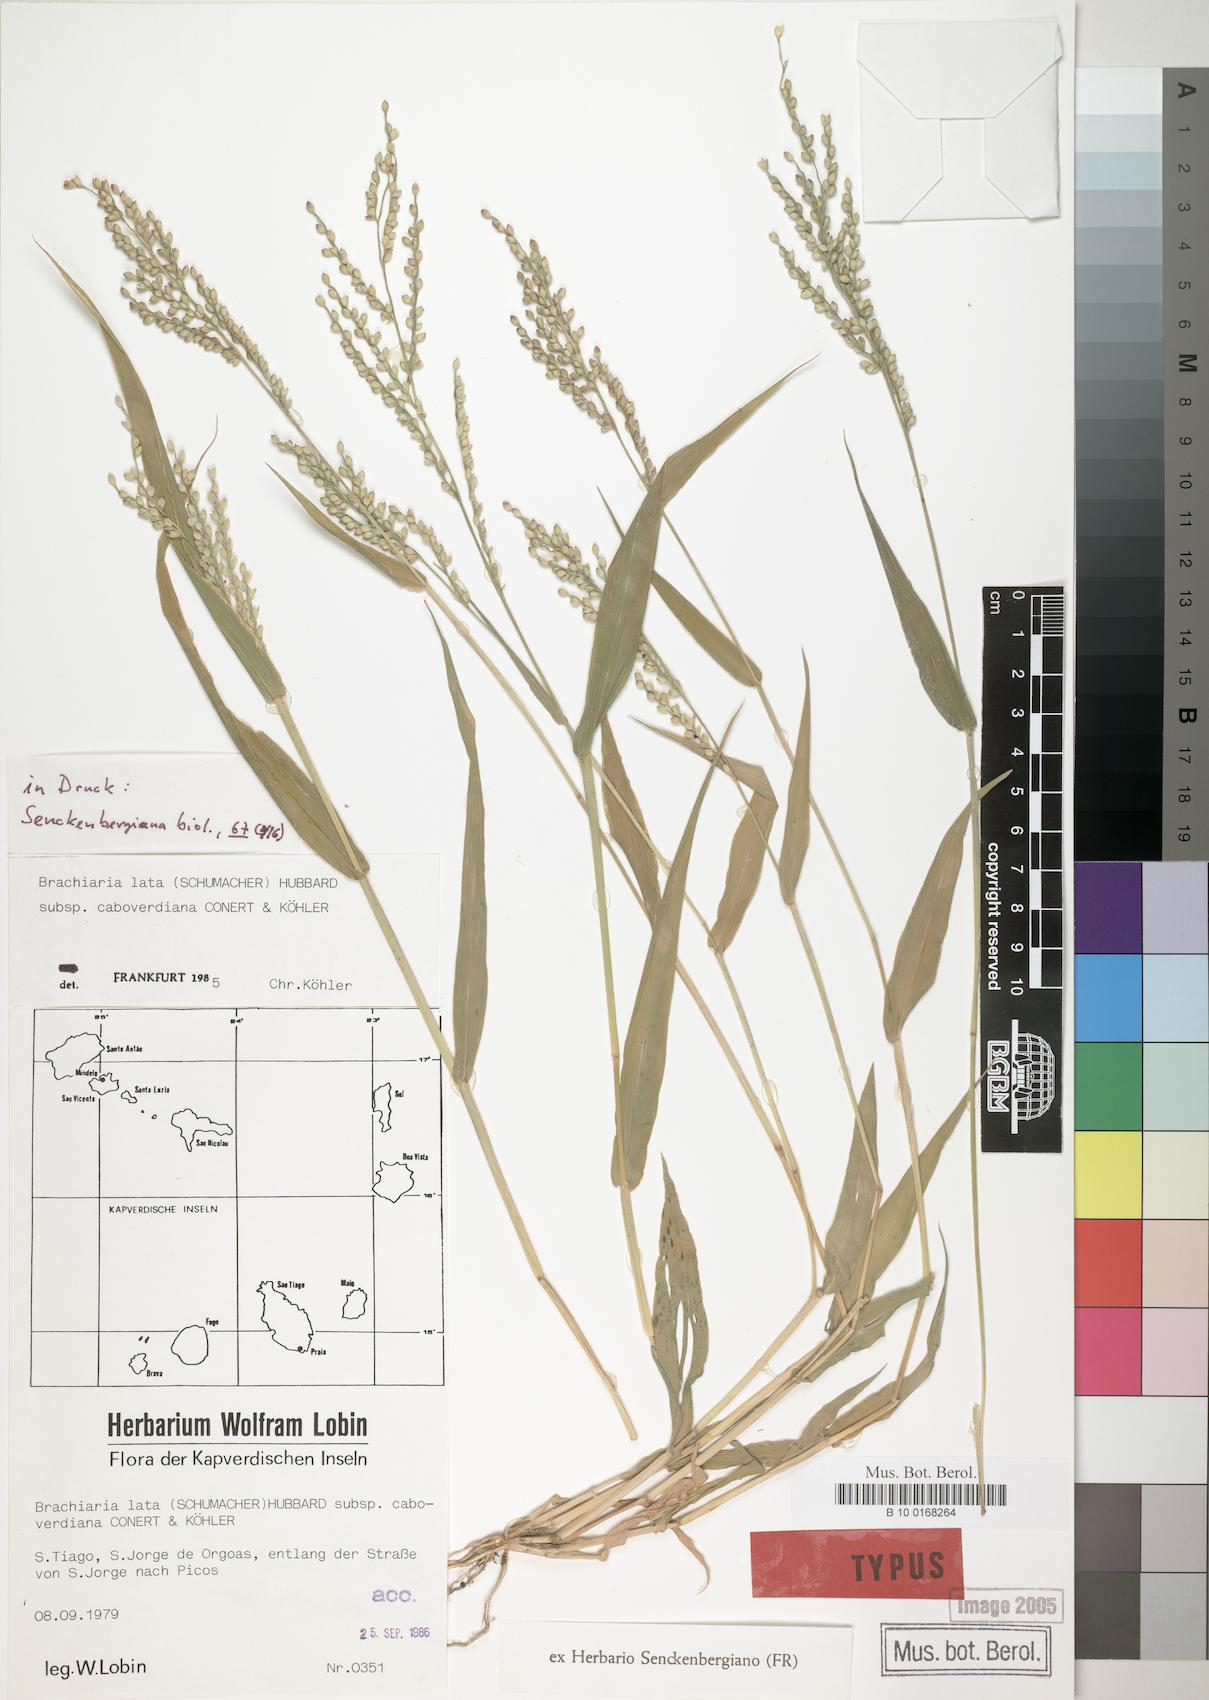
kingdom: Plantae
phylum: Tracheophyta
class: Liliopsida
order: Poales
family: Poaceae
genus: Urochloa
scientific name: Urochloa caboverdiana
